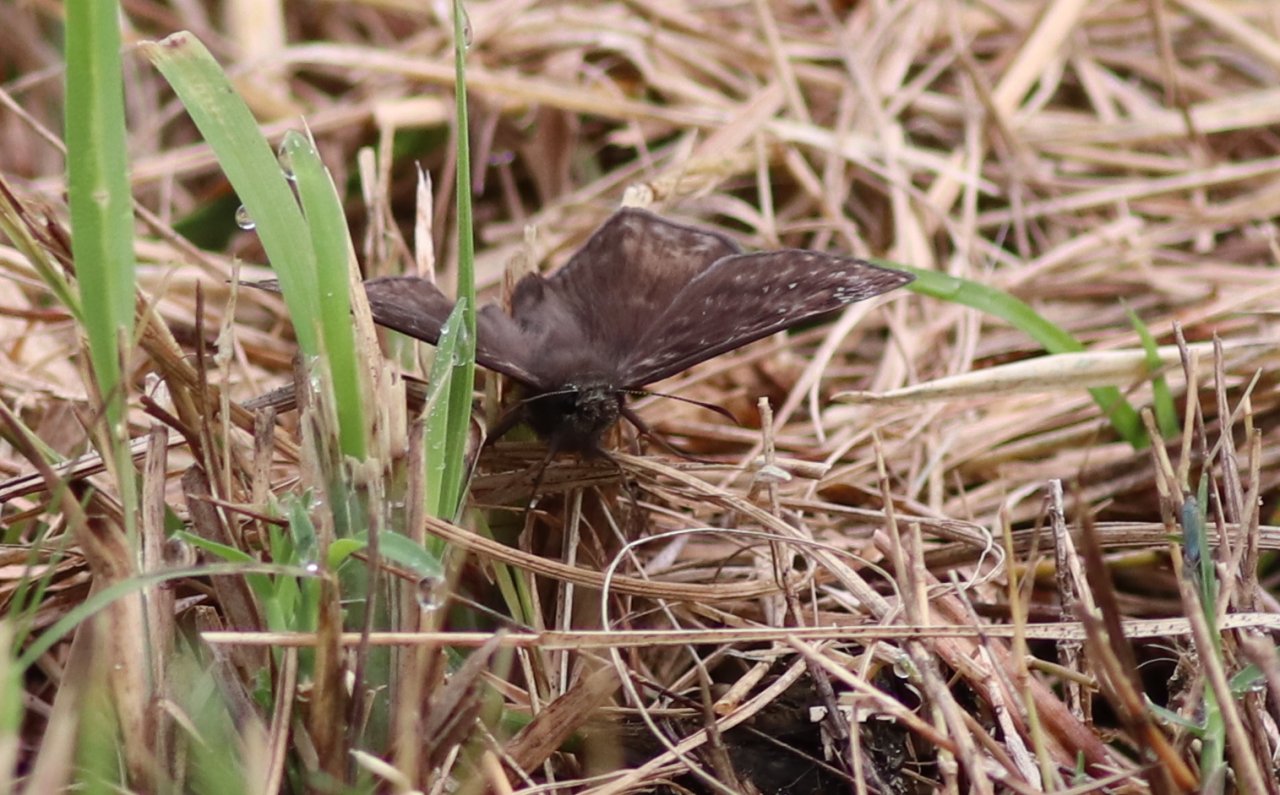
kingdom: Animalia
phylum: Arthropoda
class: Insecta
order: Lepidoptera
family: Hesperiidae
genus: Gesta
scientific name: Gesta
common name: Horace's Duskywing
